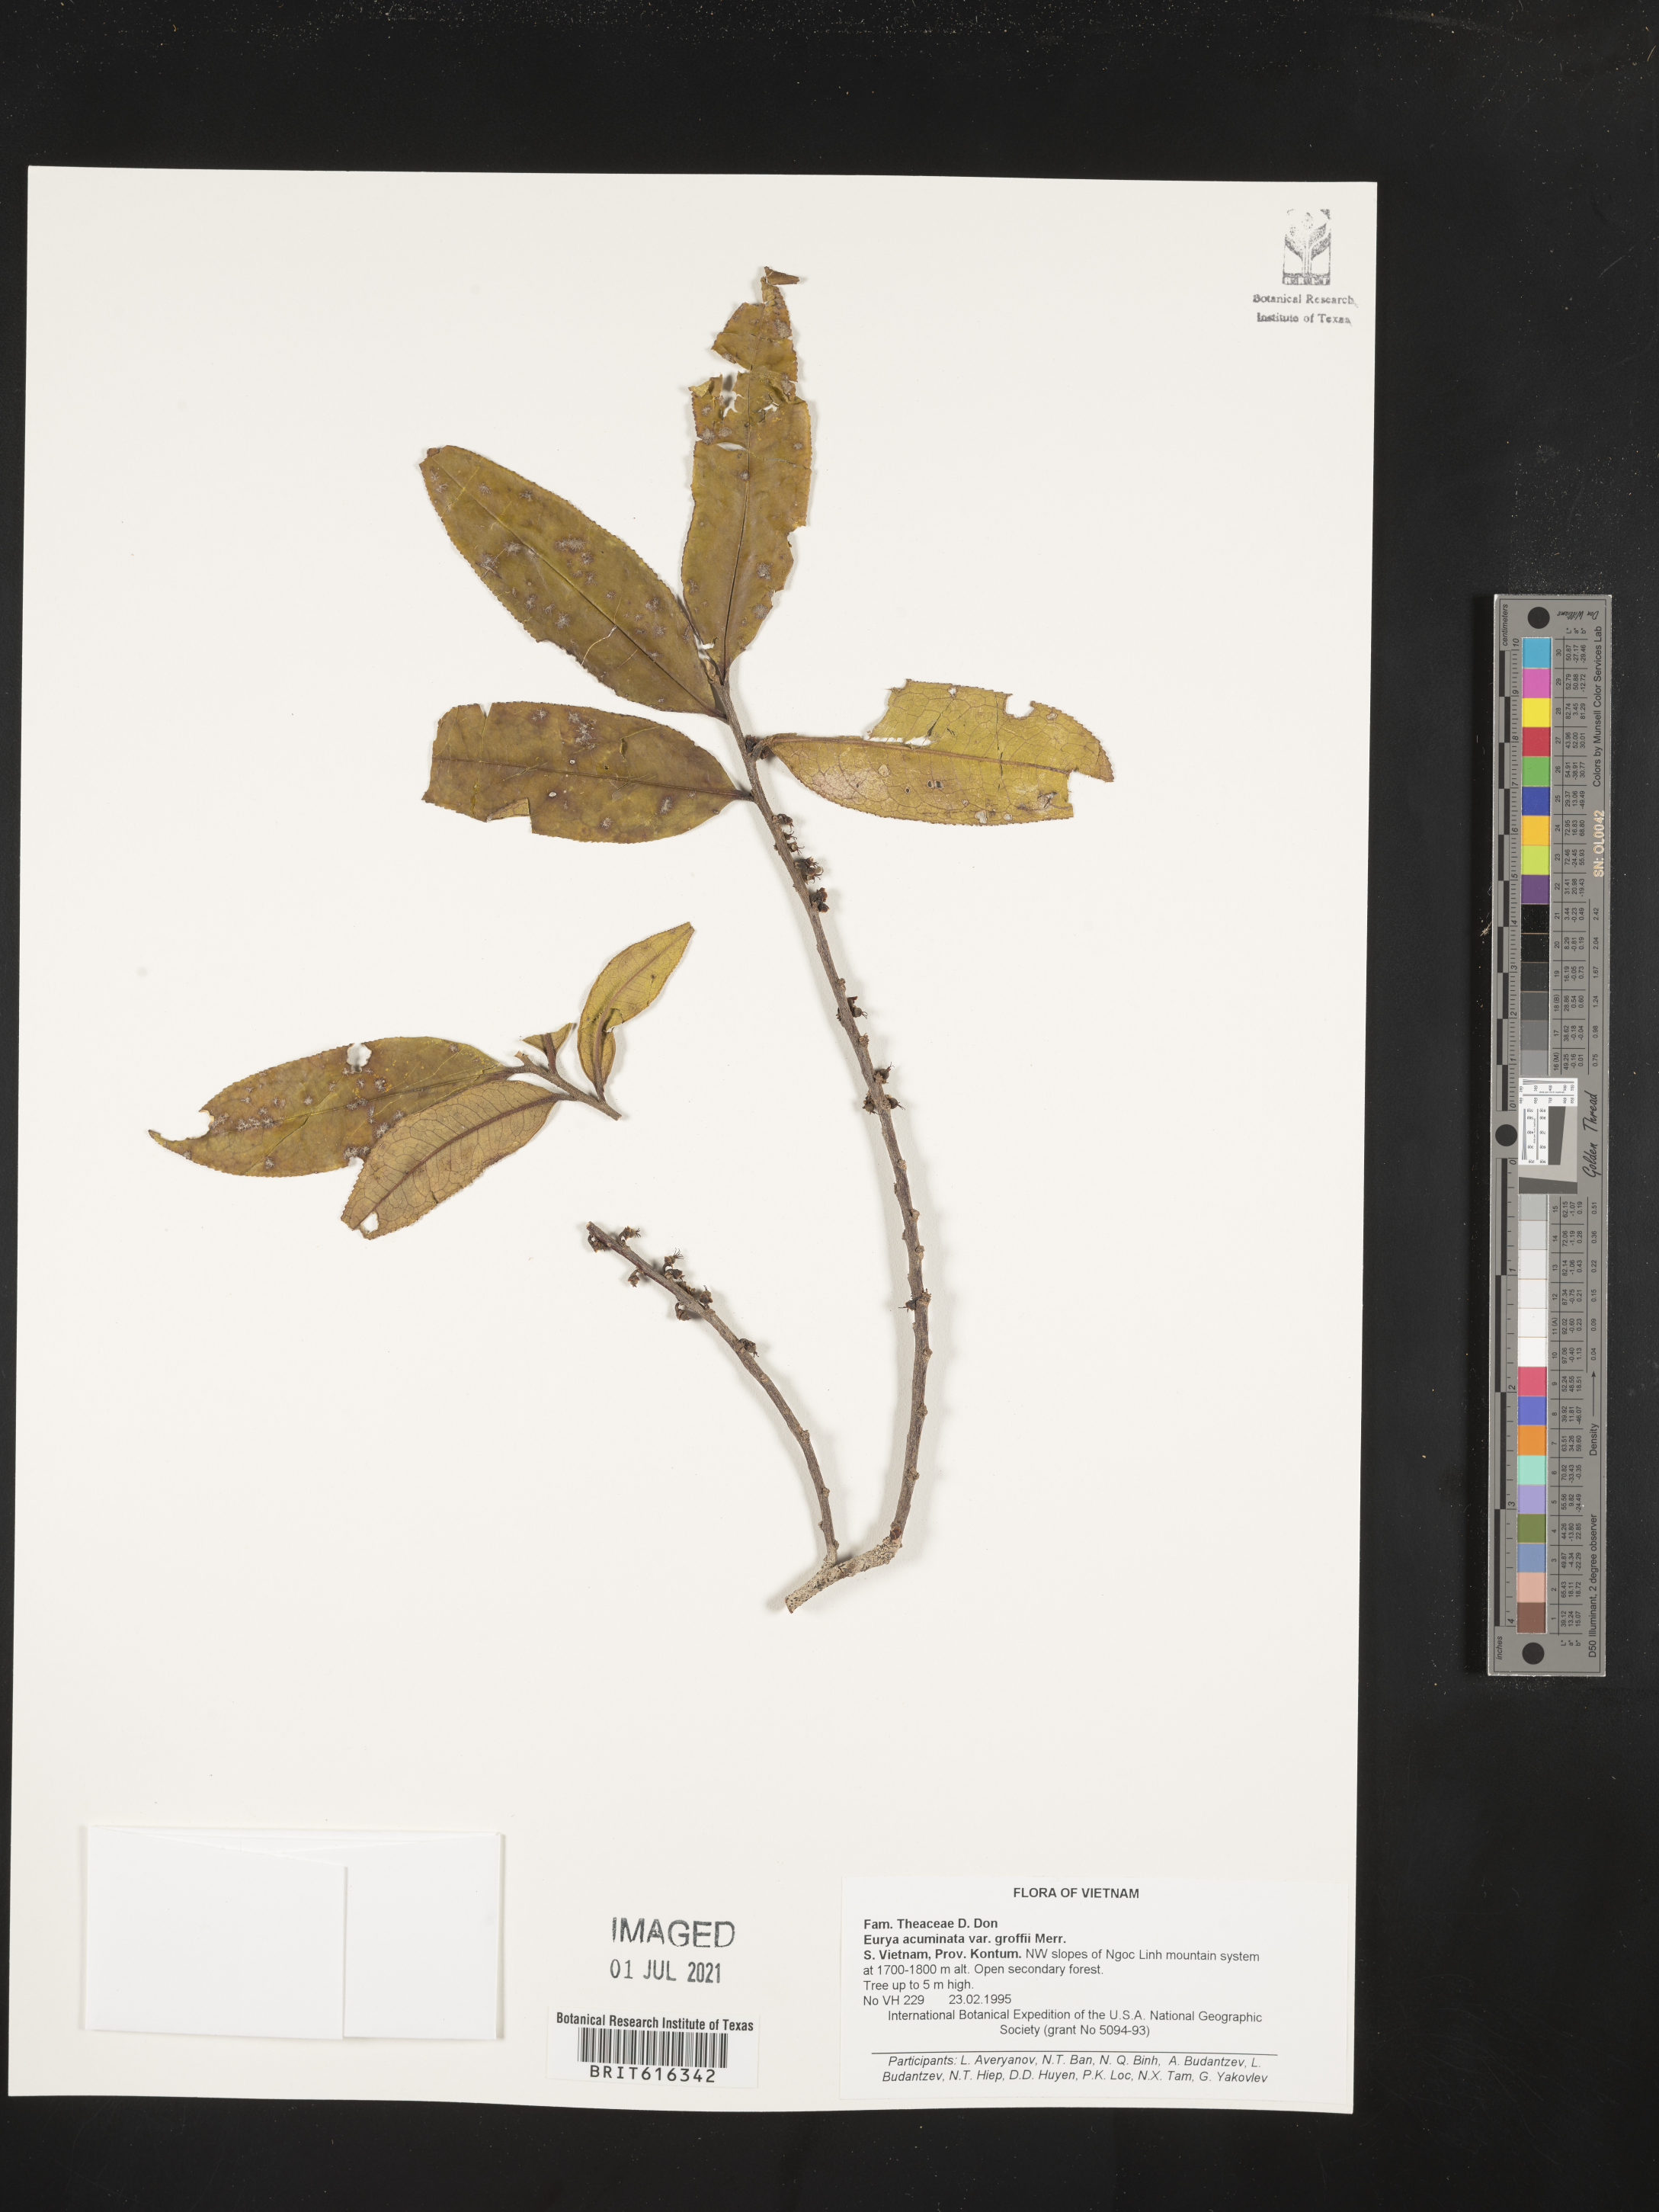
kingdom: Plantae
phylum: Tracheophyta
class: Magnoliopsida
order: Ericales
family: Pentaphylacaceae
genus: Eurya
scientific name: Eurya acuminata
